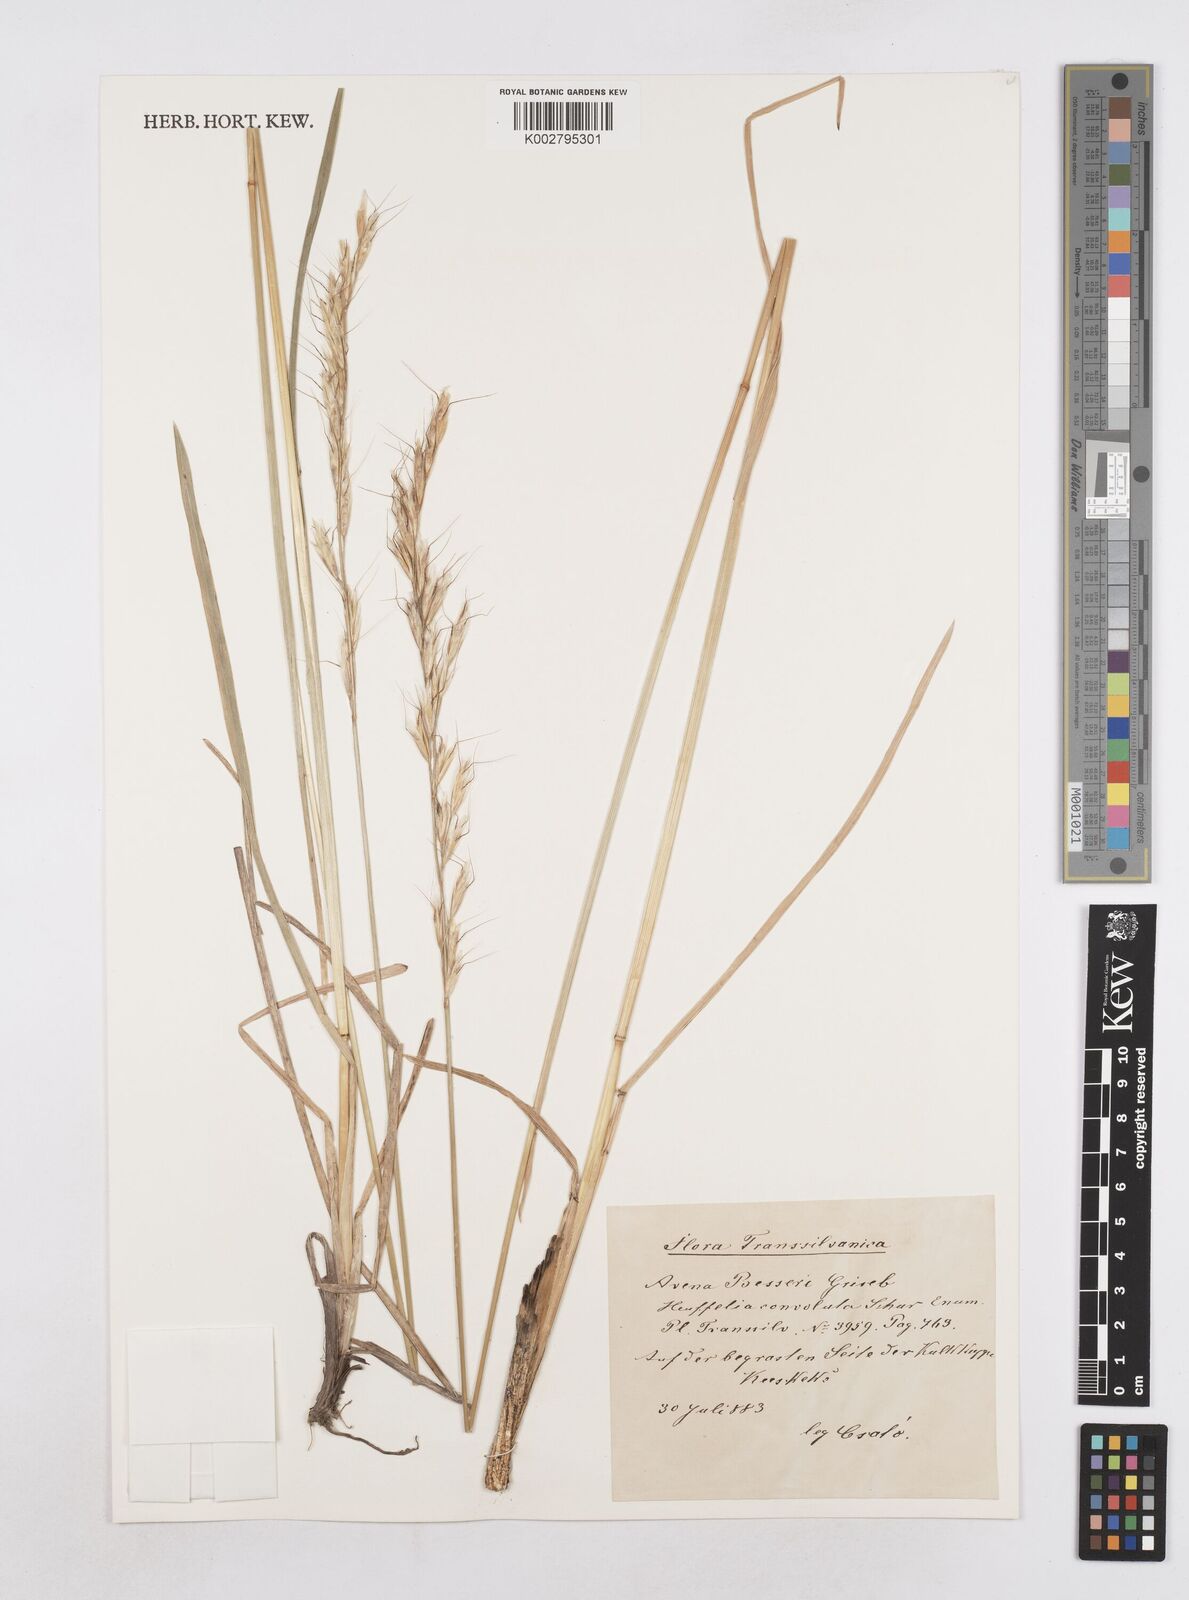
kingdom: Plantae
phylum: Tracheophyta
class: Liliopsida
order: Poales
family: Poaceae
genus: Helictotrichon
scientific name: Helictotrichon
